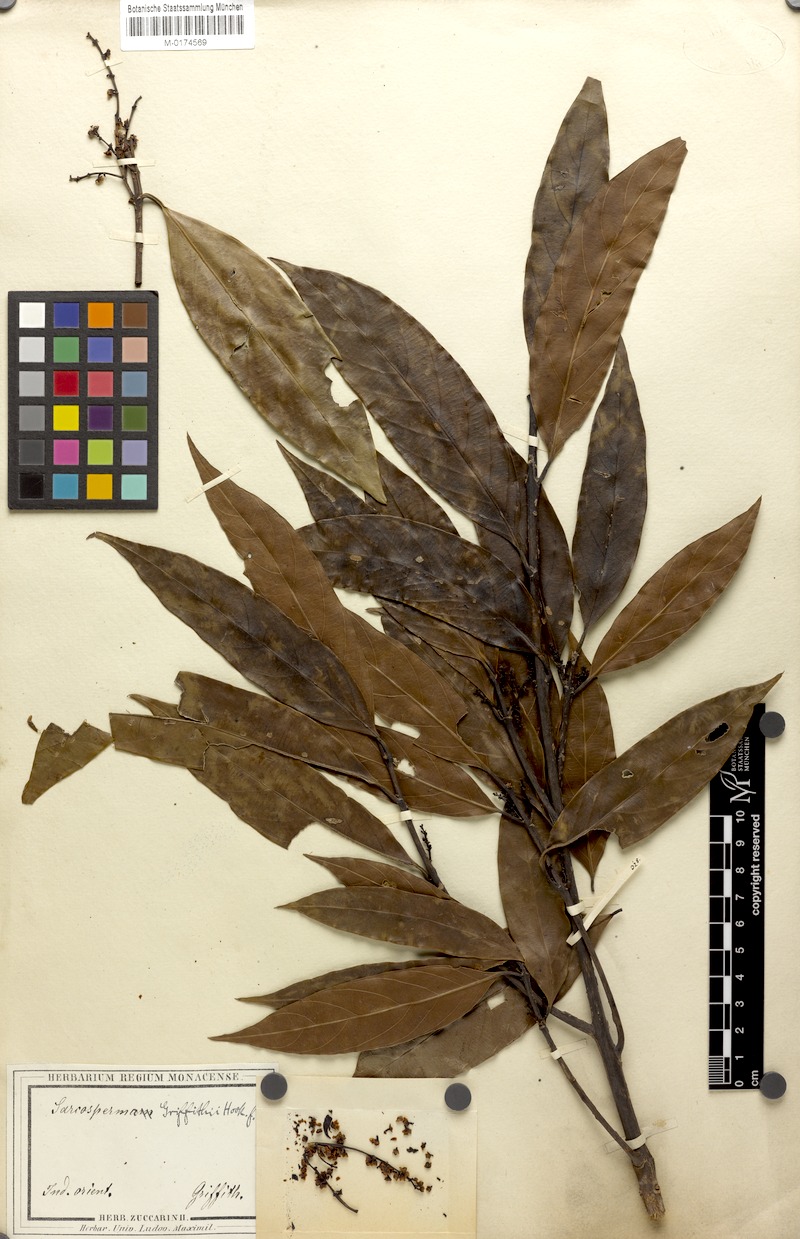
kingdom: Plantae
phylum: Tracheophyta
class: Magnoliopsida
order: Ericales
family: Sapotaceae
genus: Sarcosperma
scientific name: Sarcosperma griffithii
